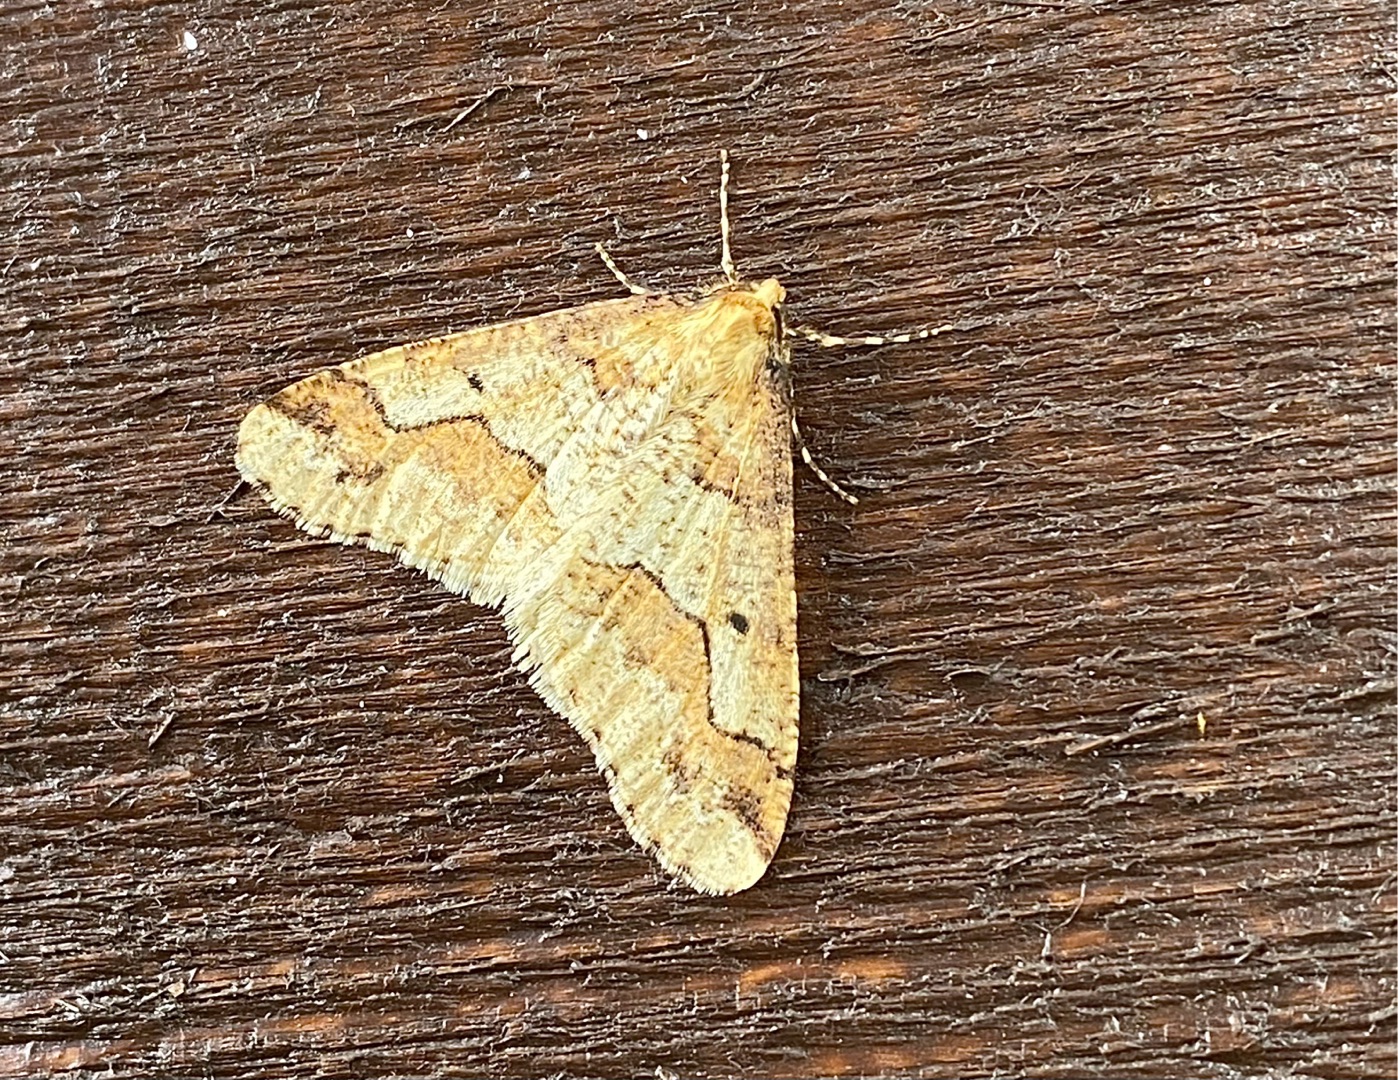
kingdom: Animalia
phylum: Arthropoda
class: Insecta
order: Lepidoptera
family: Geometridae
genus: Erannis
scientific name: Erannis defoliaria
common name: Stor frostmåler
